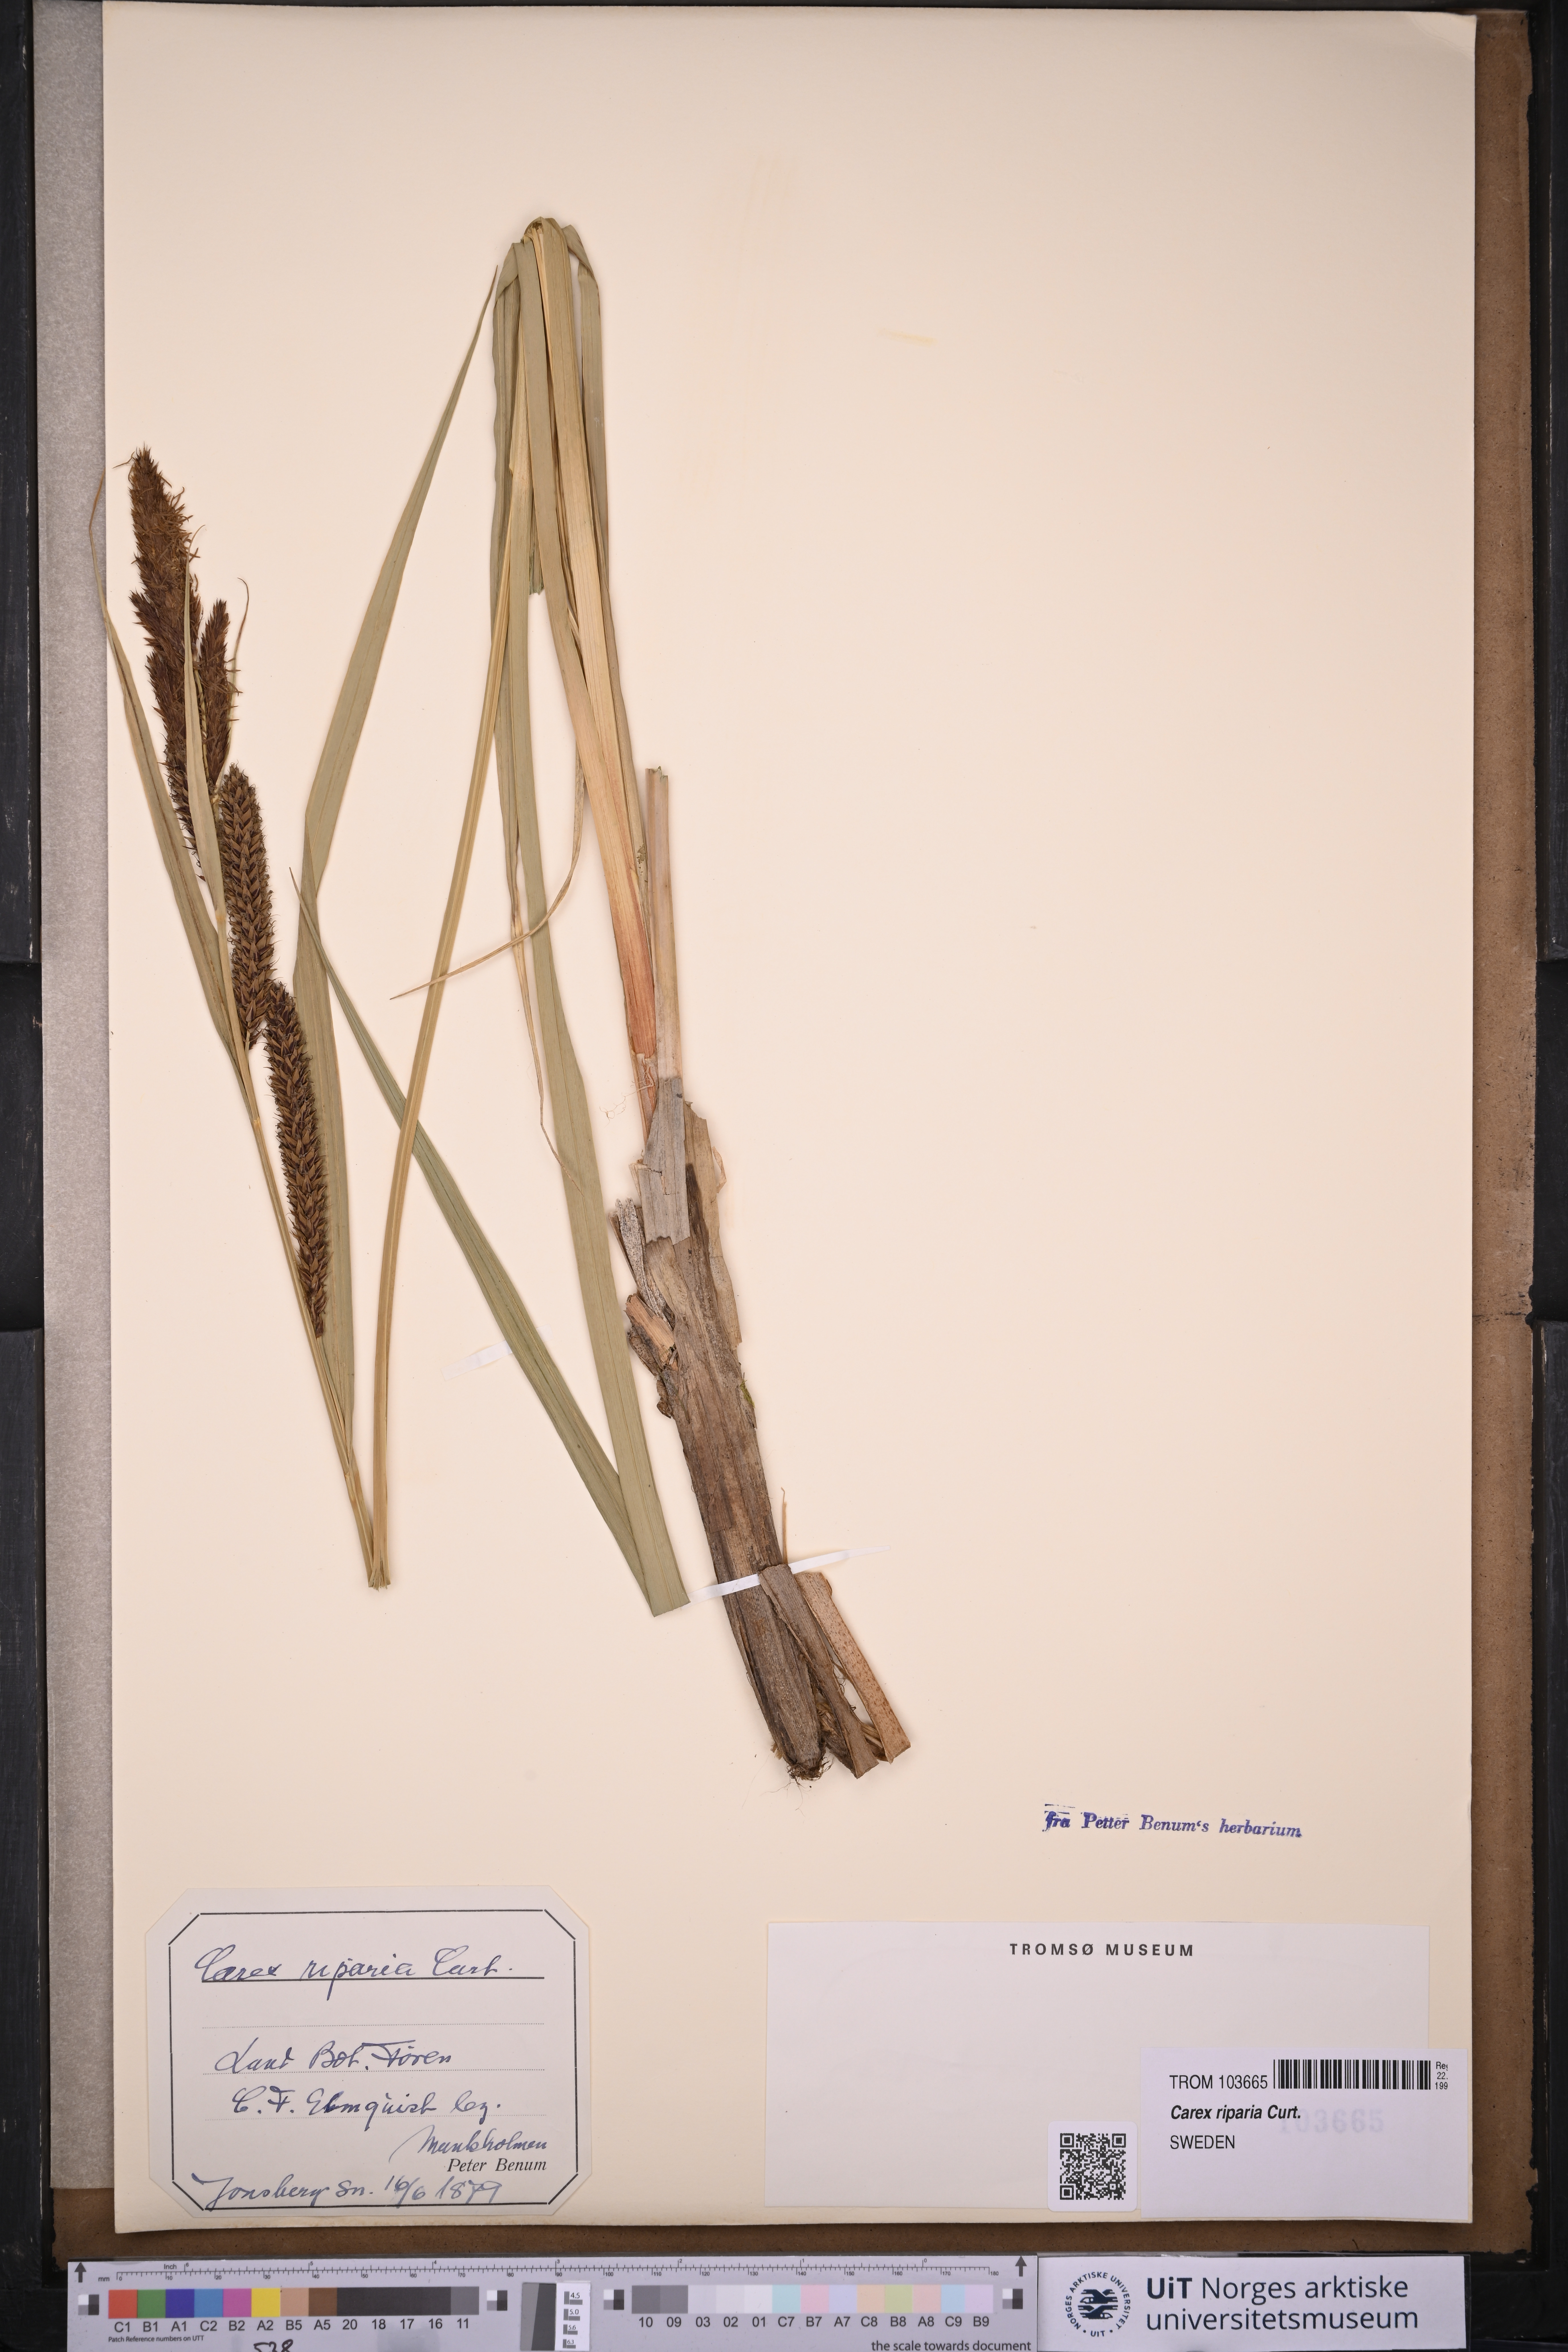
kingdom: Plantae
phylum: Tracheophyta
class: Liliopsida
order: Poales
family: Cyperaceae
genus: Carex
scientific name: Carex riparia
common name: Greater pond-sedge
